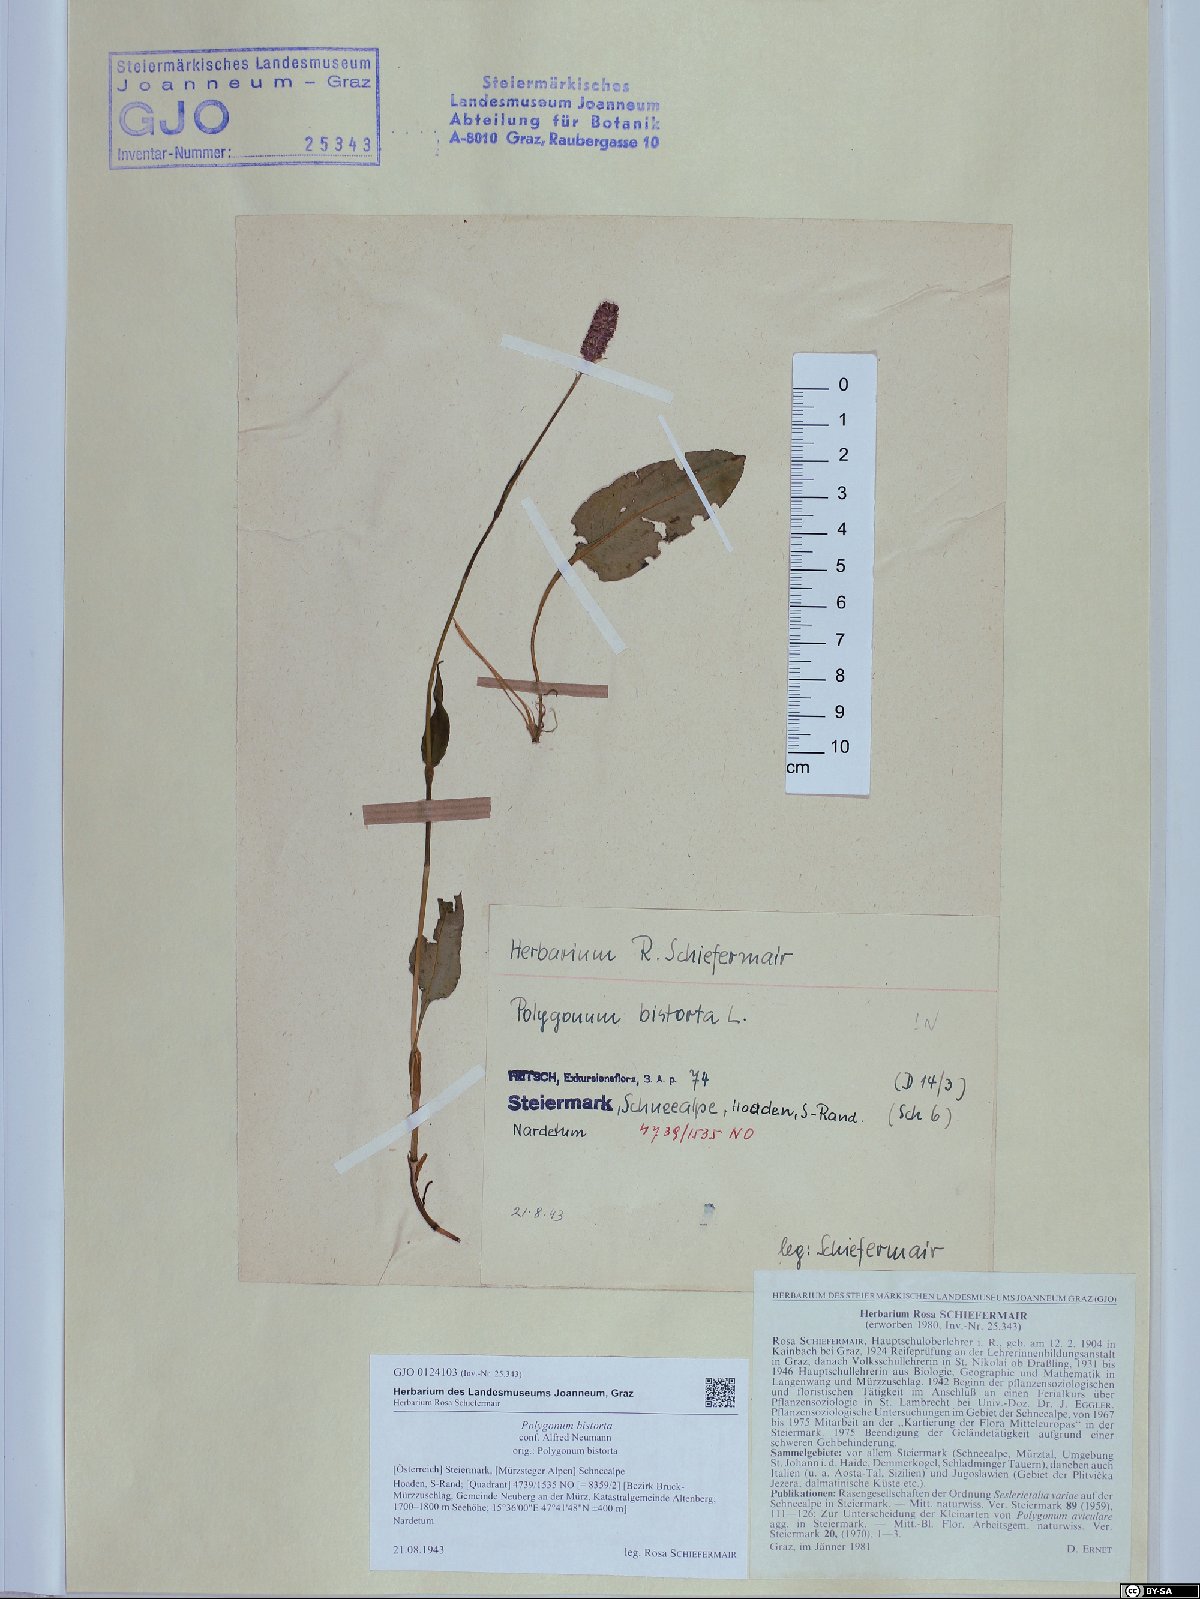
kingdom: Plantae
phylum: Tracheophyta
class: Magnoliopsida
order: Caryophyllales
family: Polygonaceae
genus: Bistorta
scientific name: Bistorta officinalis
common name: Common bistort
